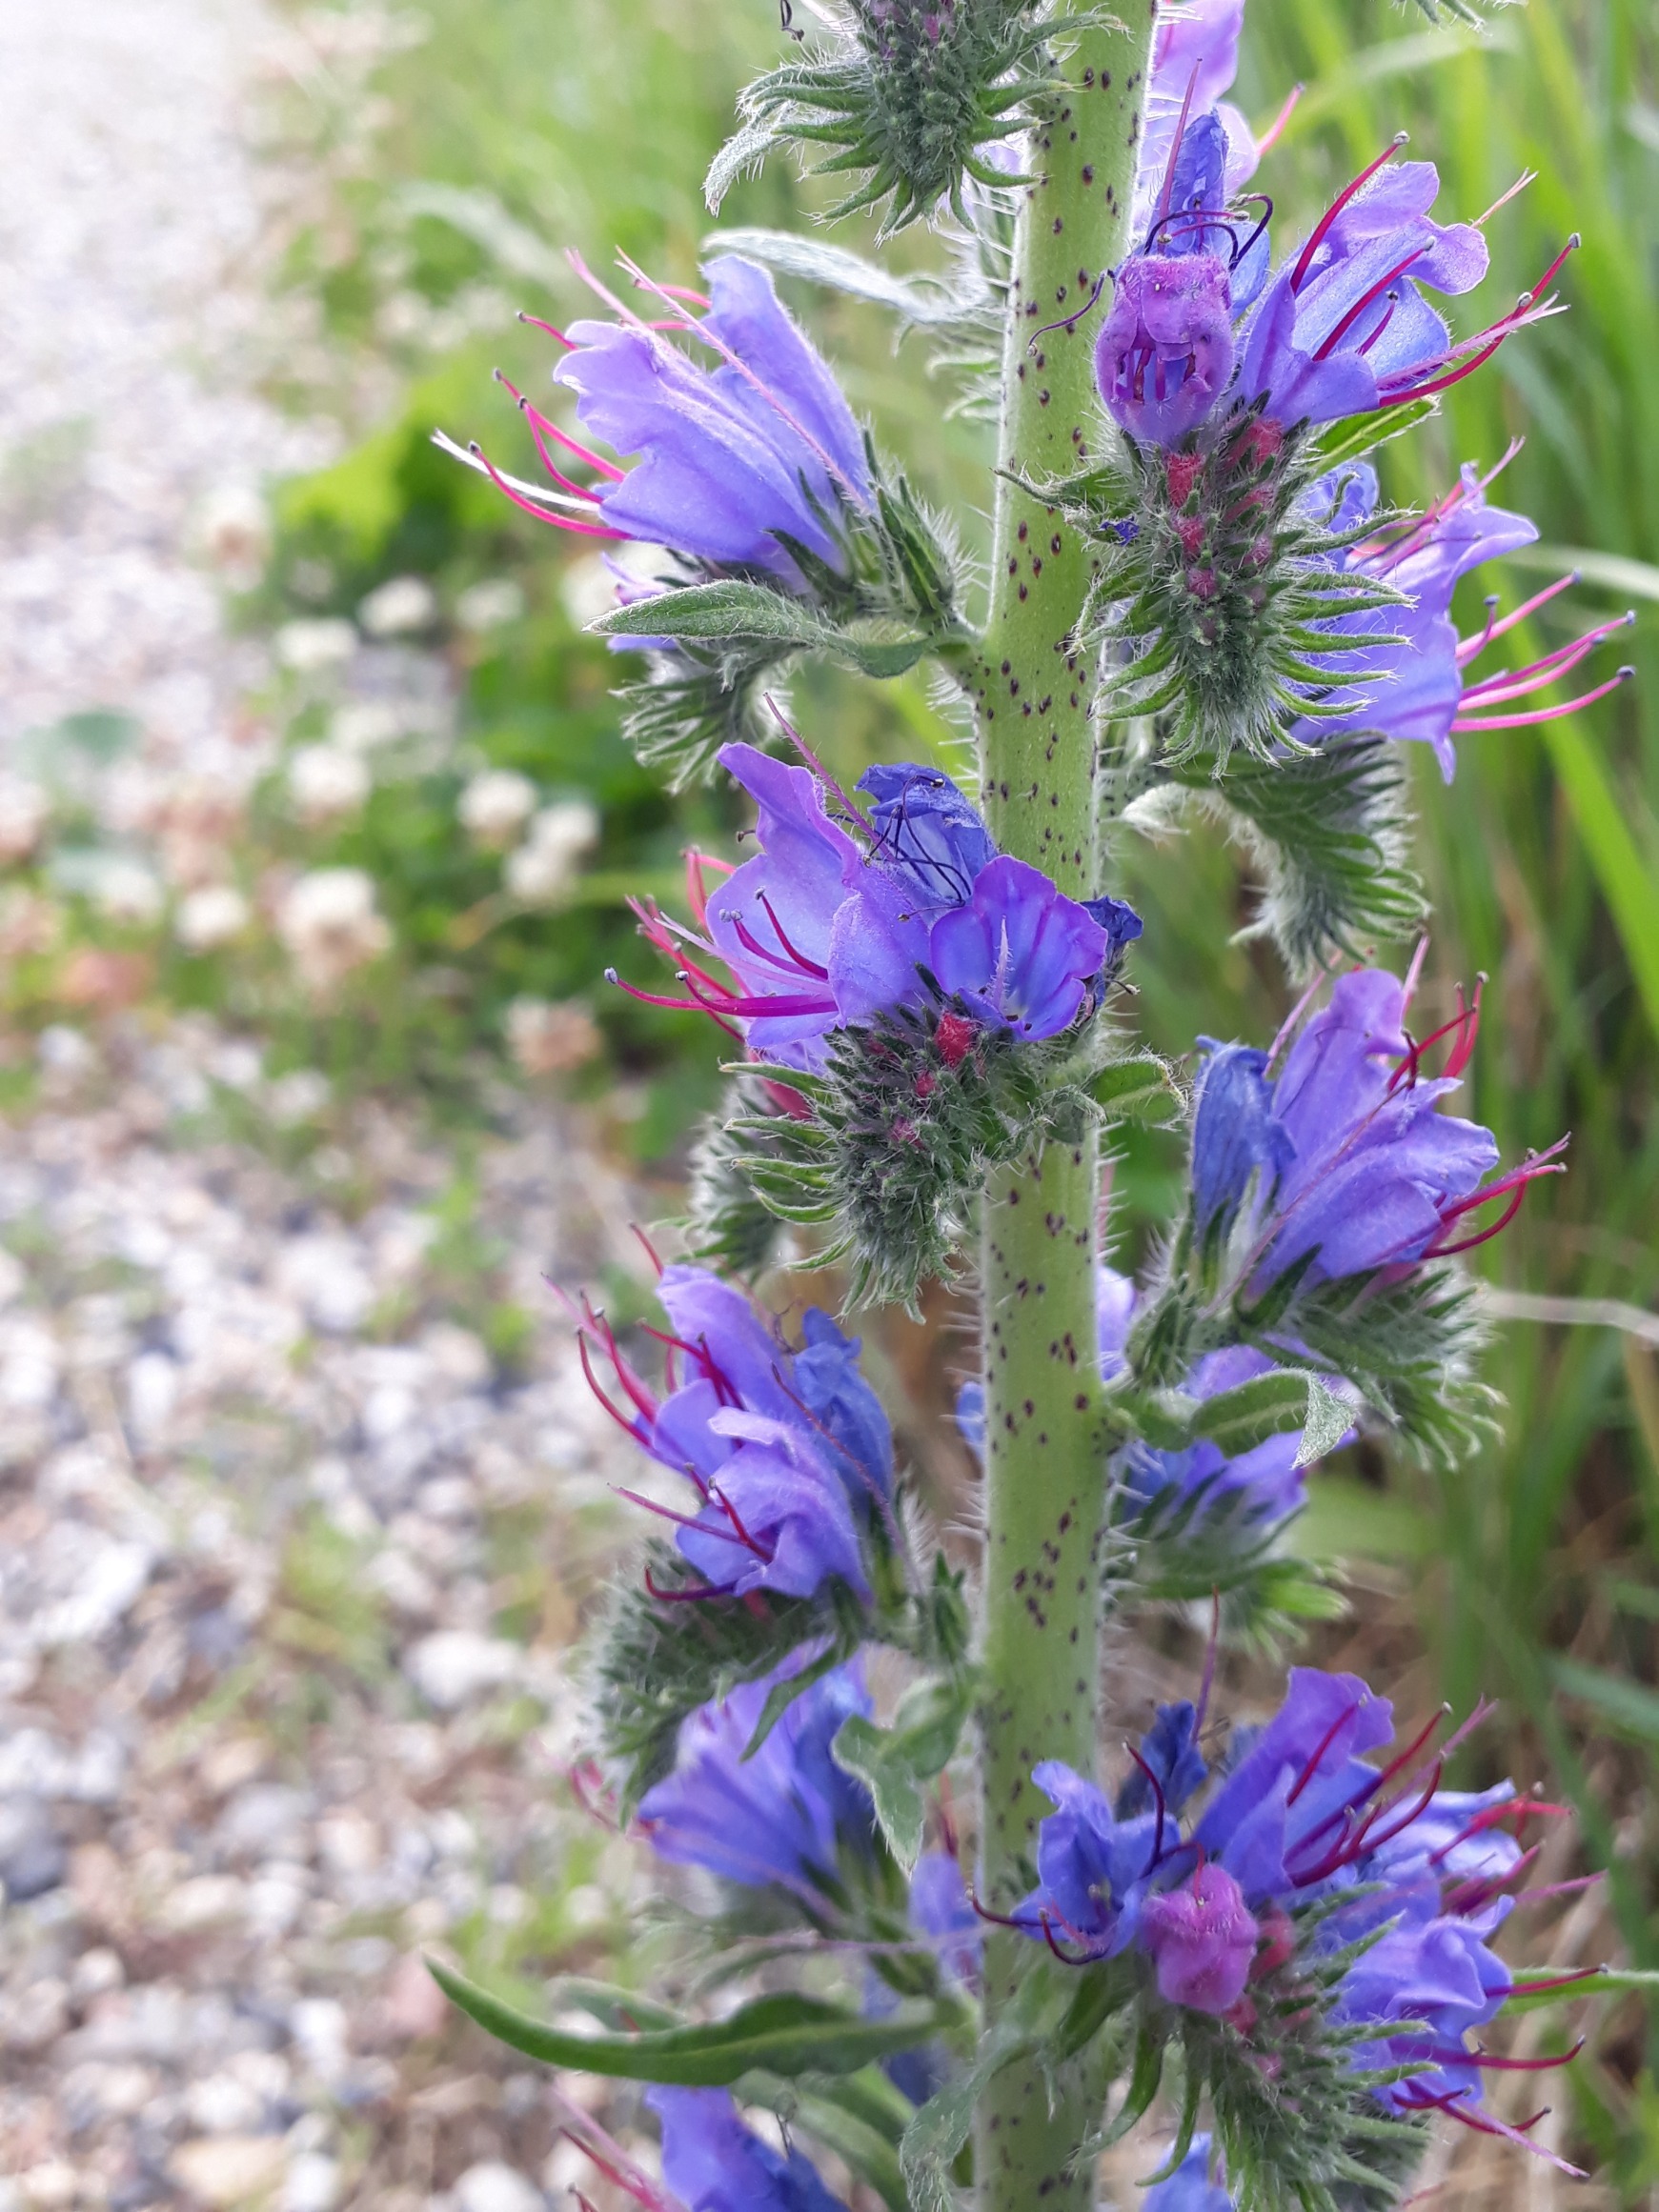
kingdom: Plantae
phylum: Tracheophyta
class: Magnoliopsida
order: Boraginales
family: Boraginaceae
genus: Echium
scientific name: Echium vulgare
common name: Slangehoved
